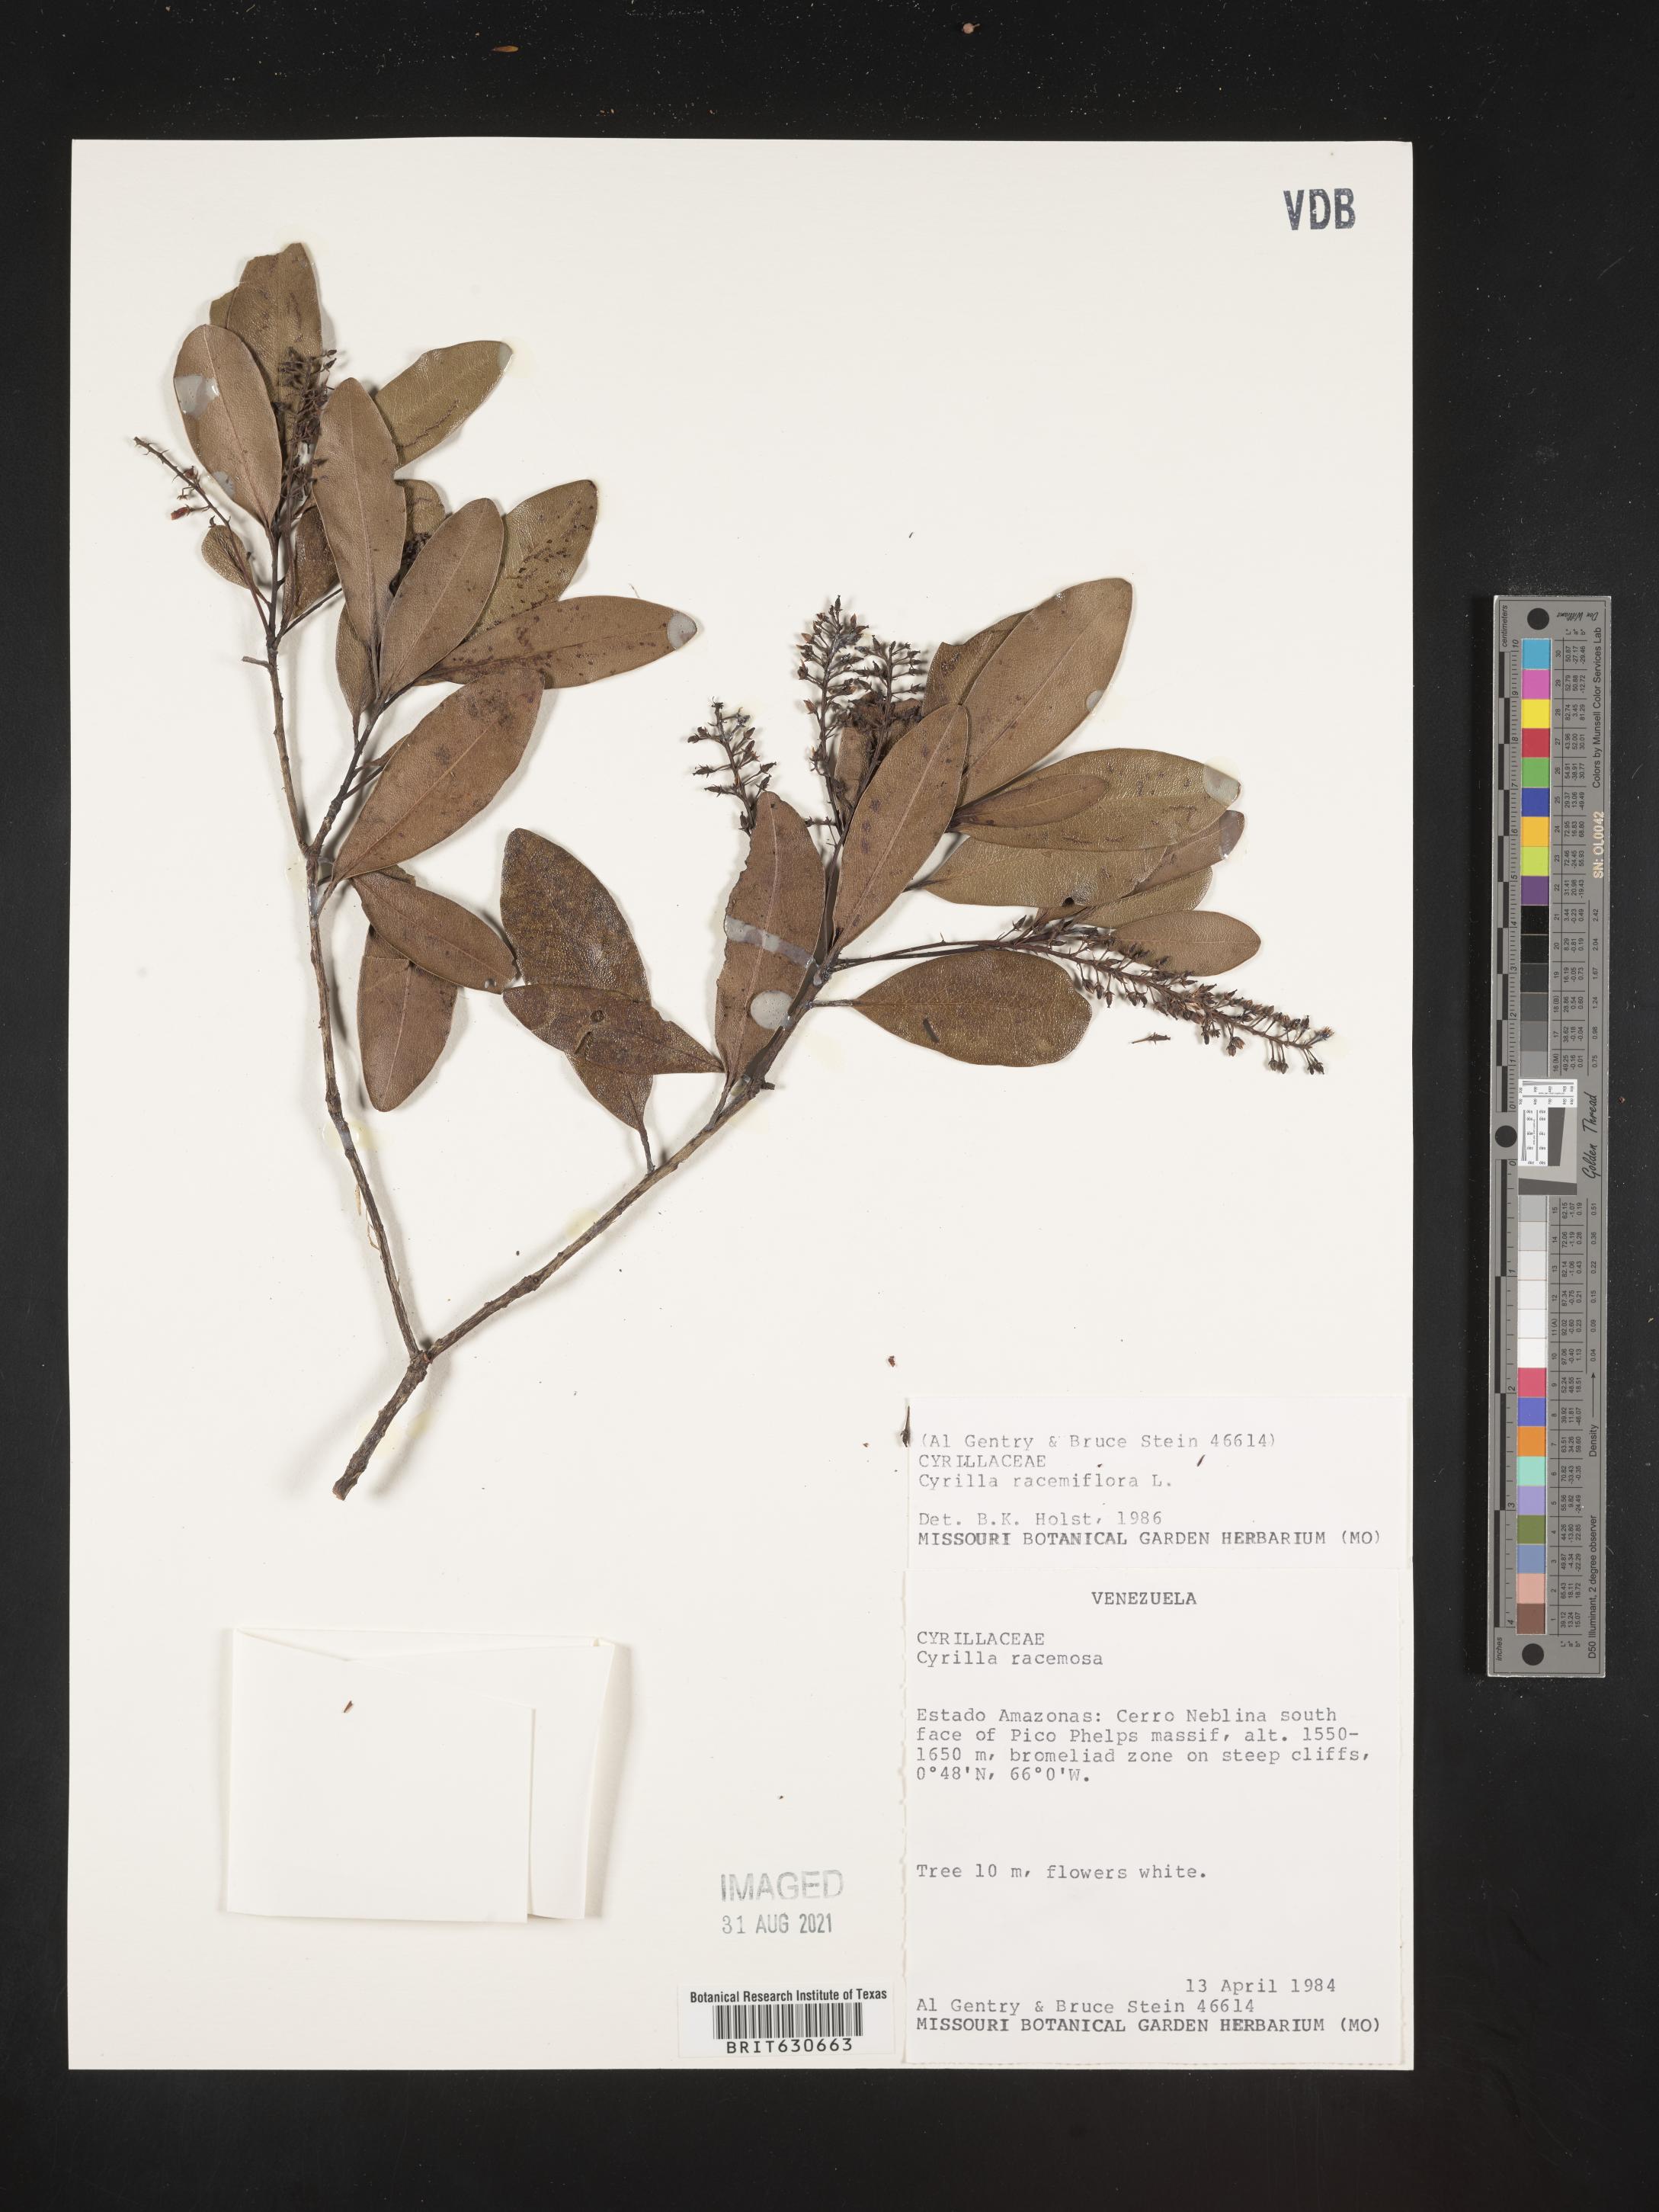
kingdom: Plantae
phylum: Tracheophyta
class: Magnoliopsida
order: Ericales
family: Cyrillaceae
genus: Cyrilla
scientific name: Cyrilla racemiflora
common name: Black titi
